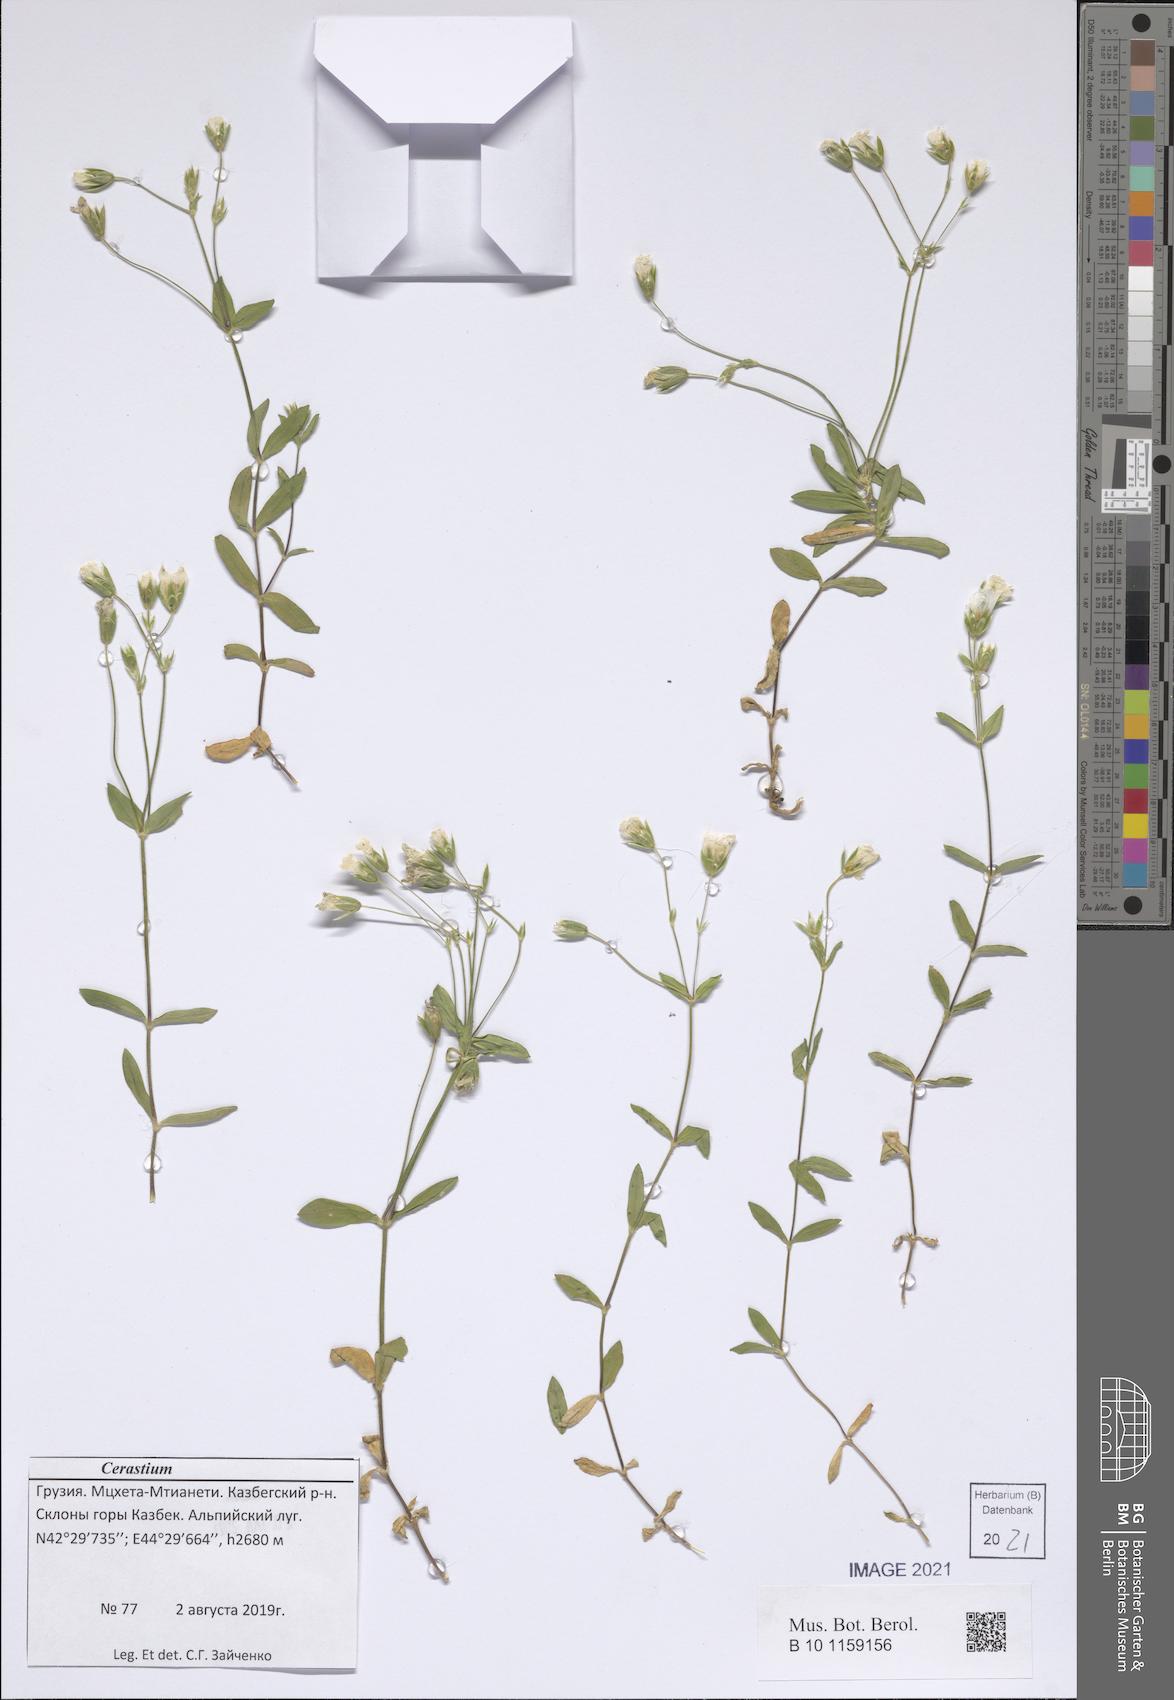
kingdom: Plantae
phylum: Tracheophyta
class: Magnoliopsida
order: Caryophyllales
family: Caryophyllaceae
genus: Cerastium
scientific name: Cerastium
